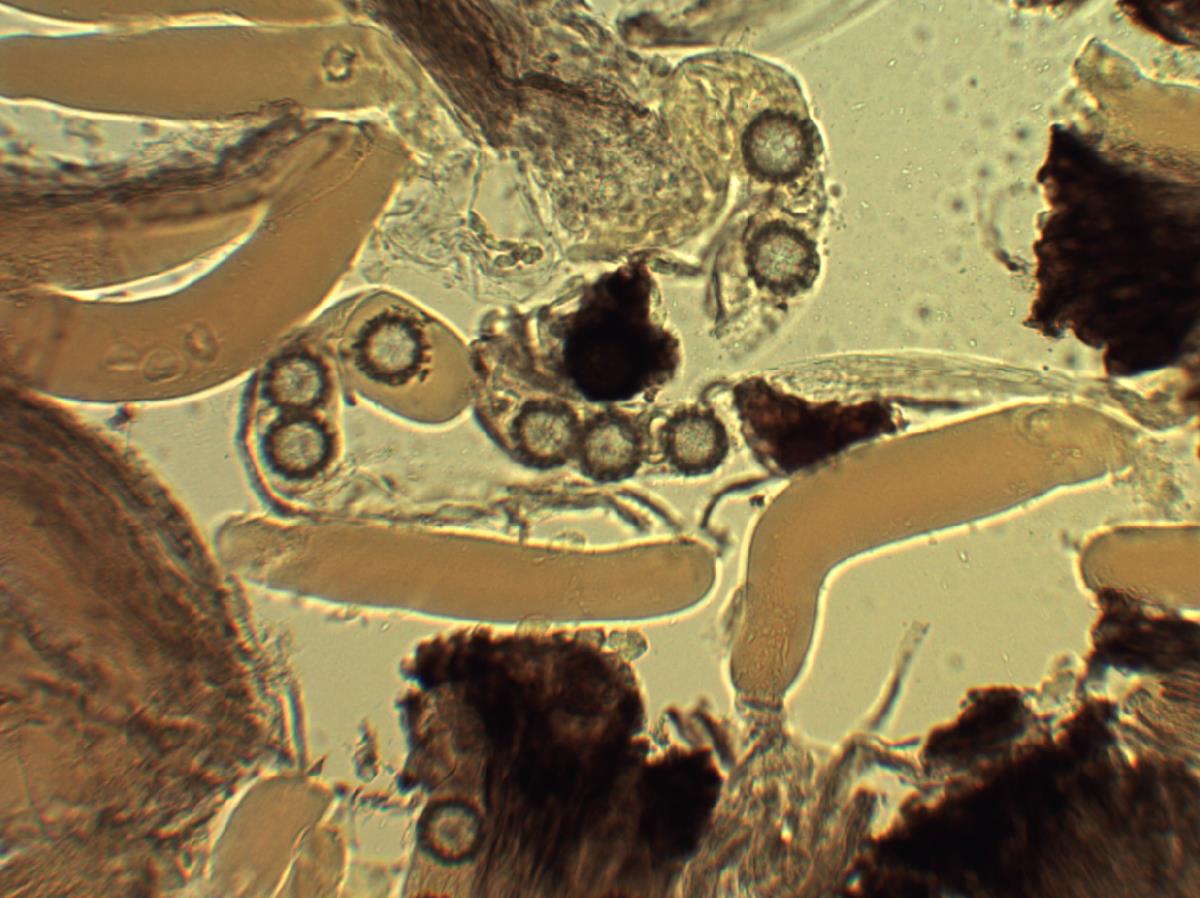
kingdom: Fungi
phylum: Ascomycota
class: Pezizomycetes
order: Pezizales
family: Pyronemataceae
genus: Sphaerosoma
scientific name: Sphaerosoma trispora
